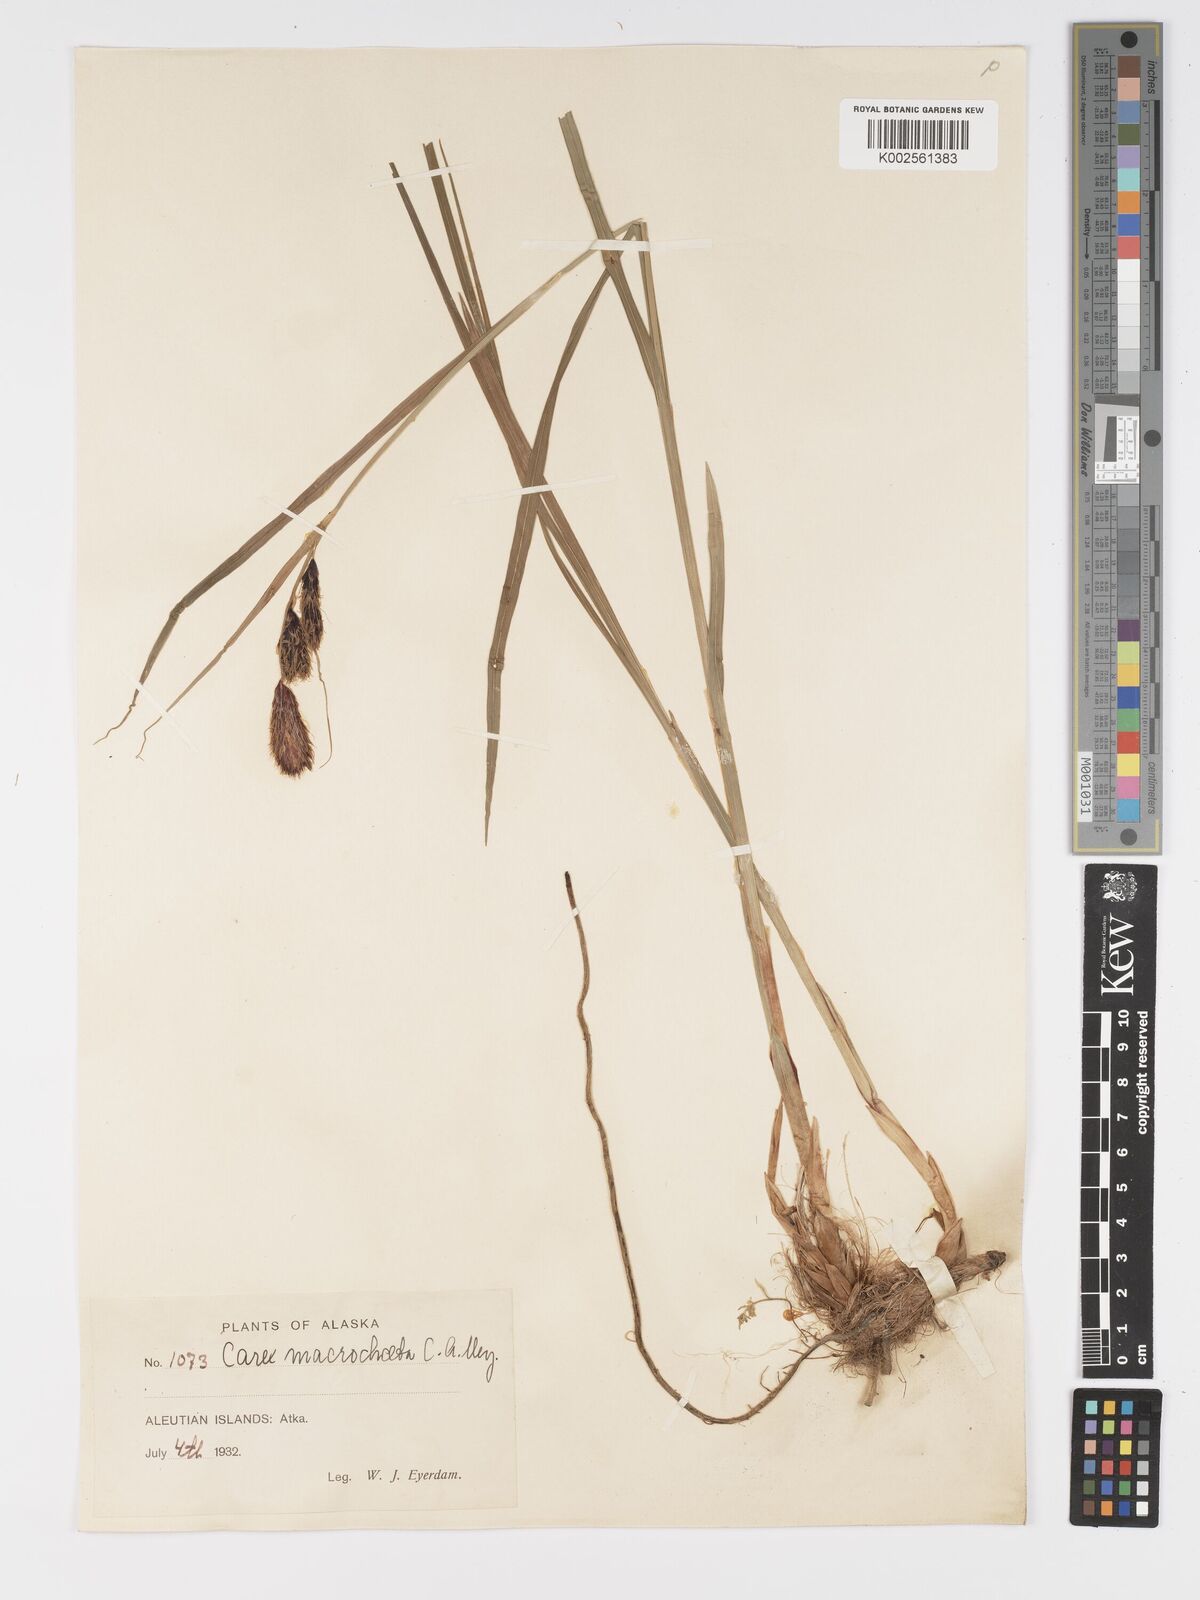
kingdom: Plantae
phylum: Tracheophyta
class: Liliopsida
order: Poales
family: Cyperaceae
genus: Carex
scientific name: Carex macrochaeta
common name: Alaska large awn sedge
